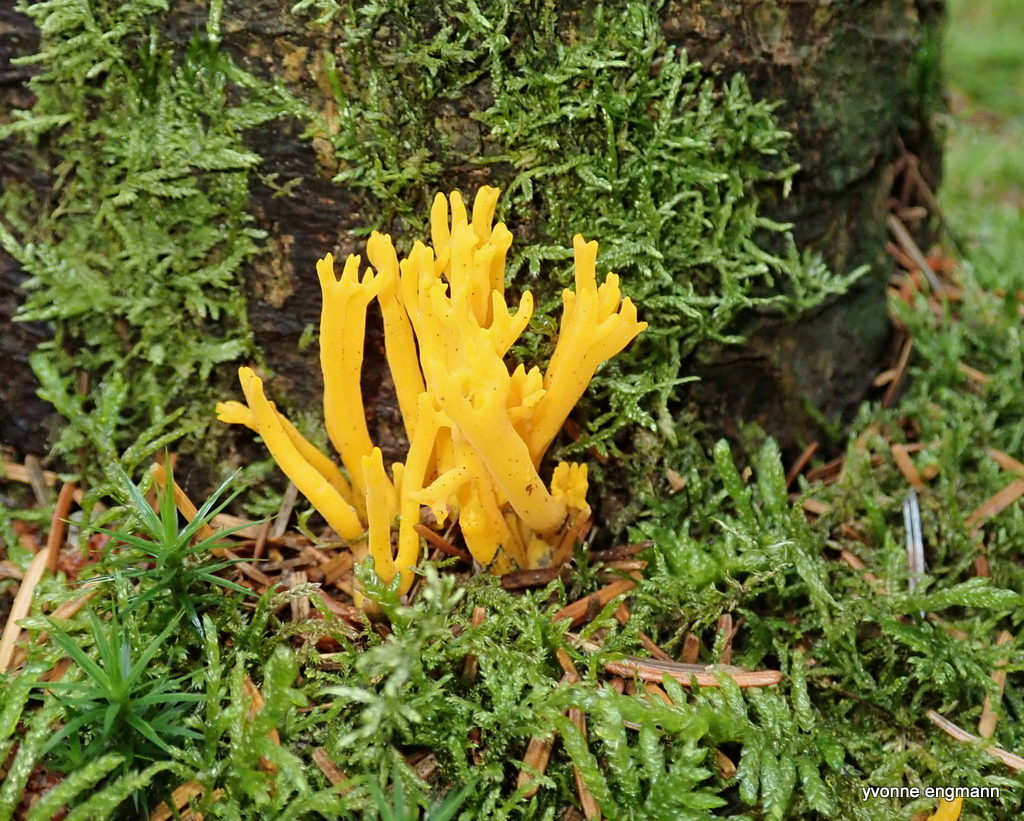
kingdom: Fungi
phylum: Basidiomycota
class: Dacrymycetes
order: Dacrymycetales
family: Dacrymycetaceae
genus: Calocera
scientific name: Calocera viscosa
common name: almindelig guldgaffel
